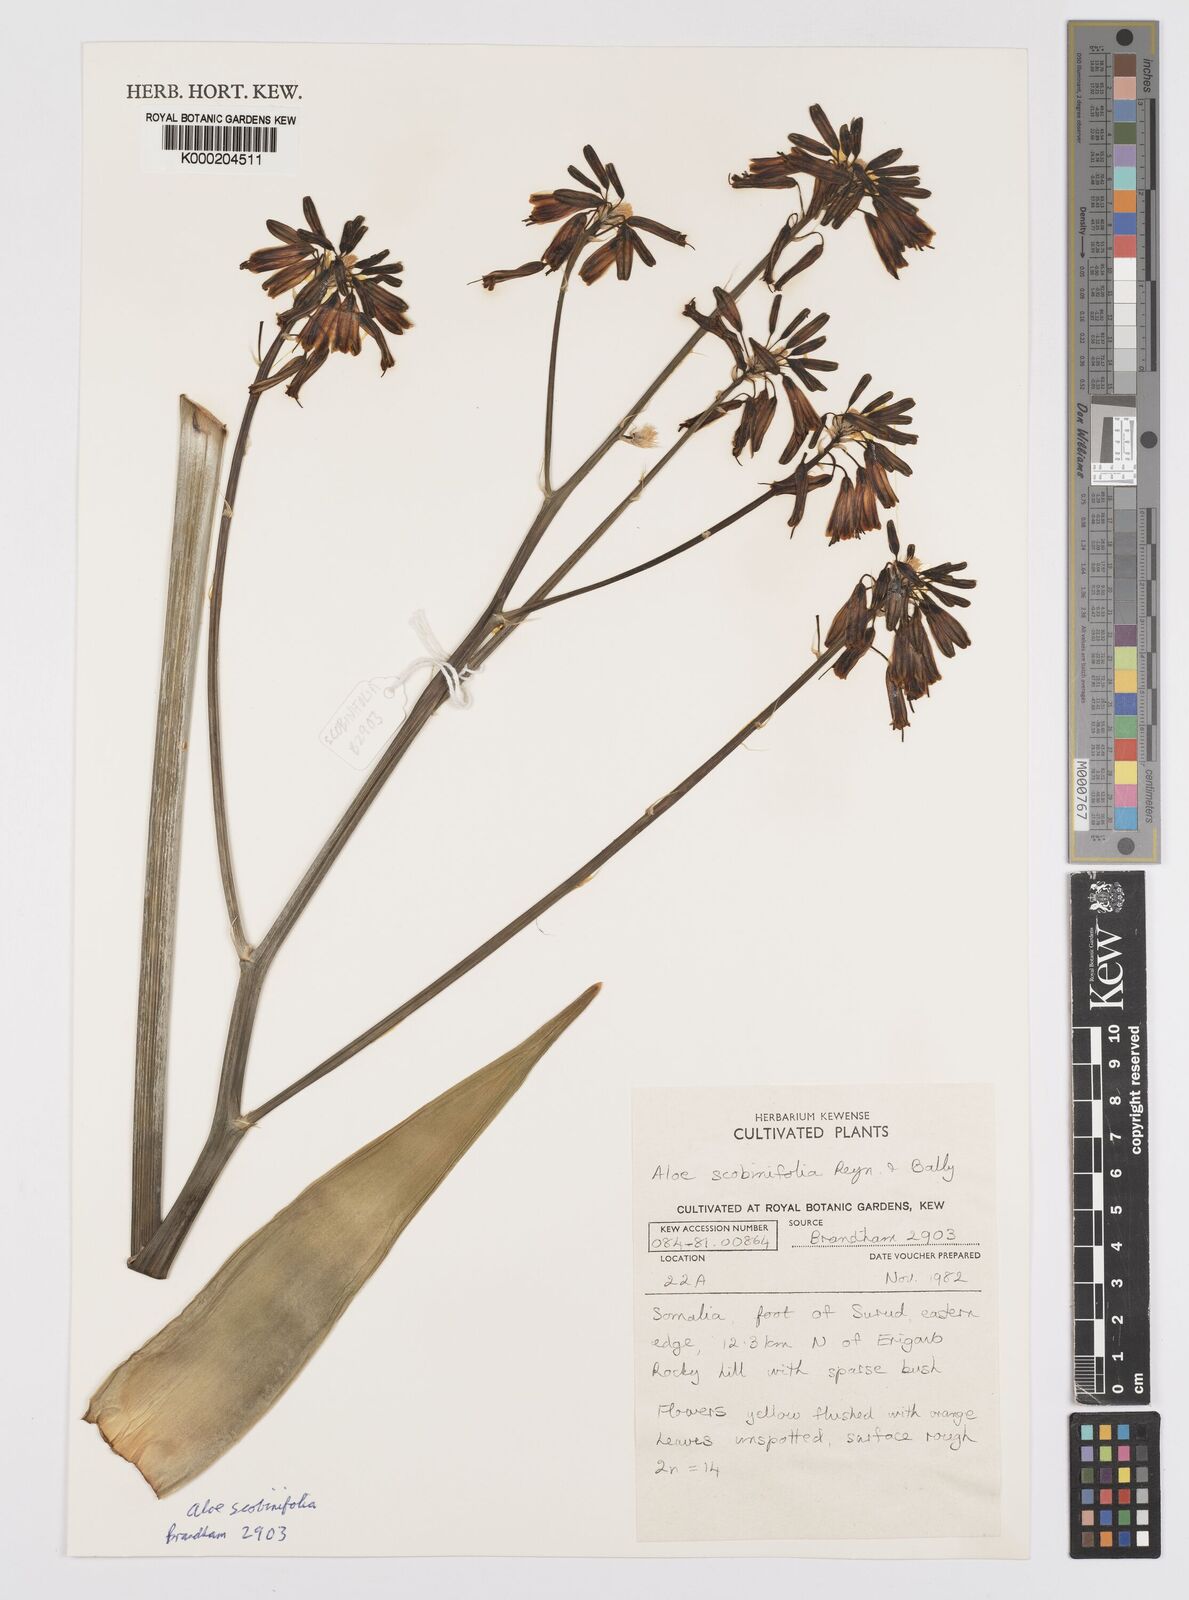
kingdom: Plantae
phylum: Tracheophyta
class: Liliopsida
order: Asparagales
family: Asphodelaceae
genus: Aloe
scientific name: Aloe scobinifolia
